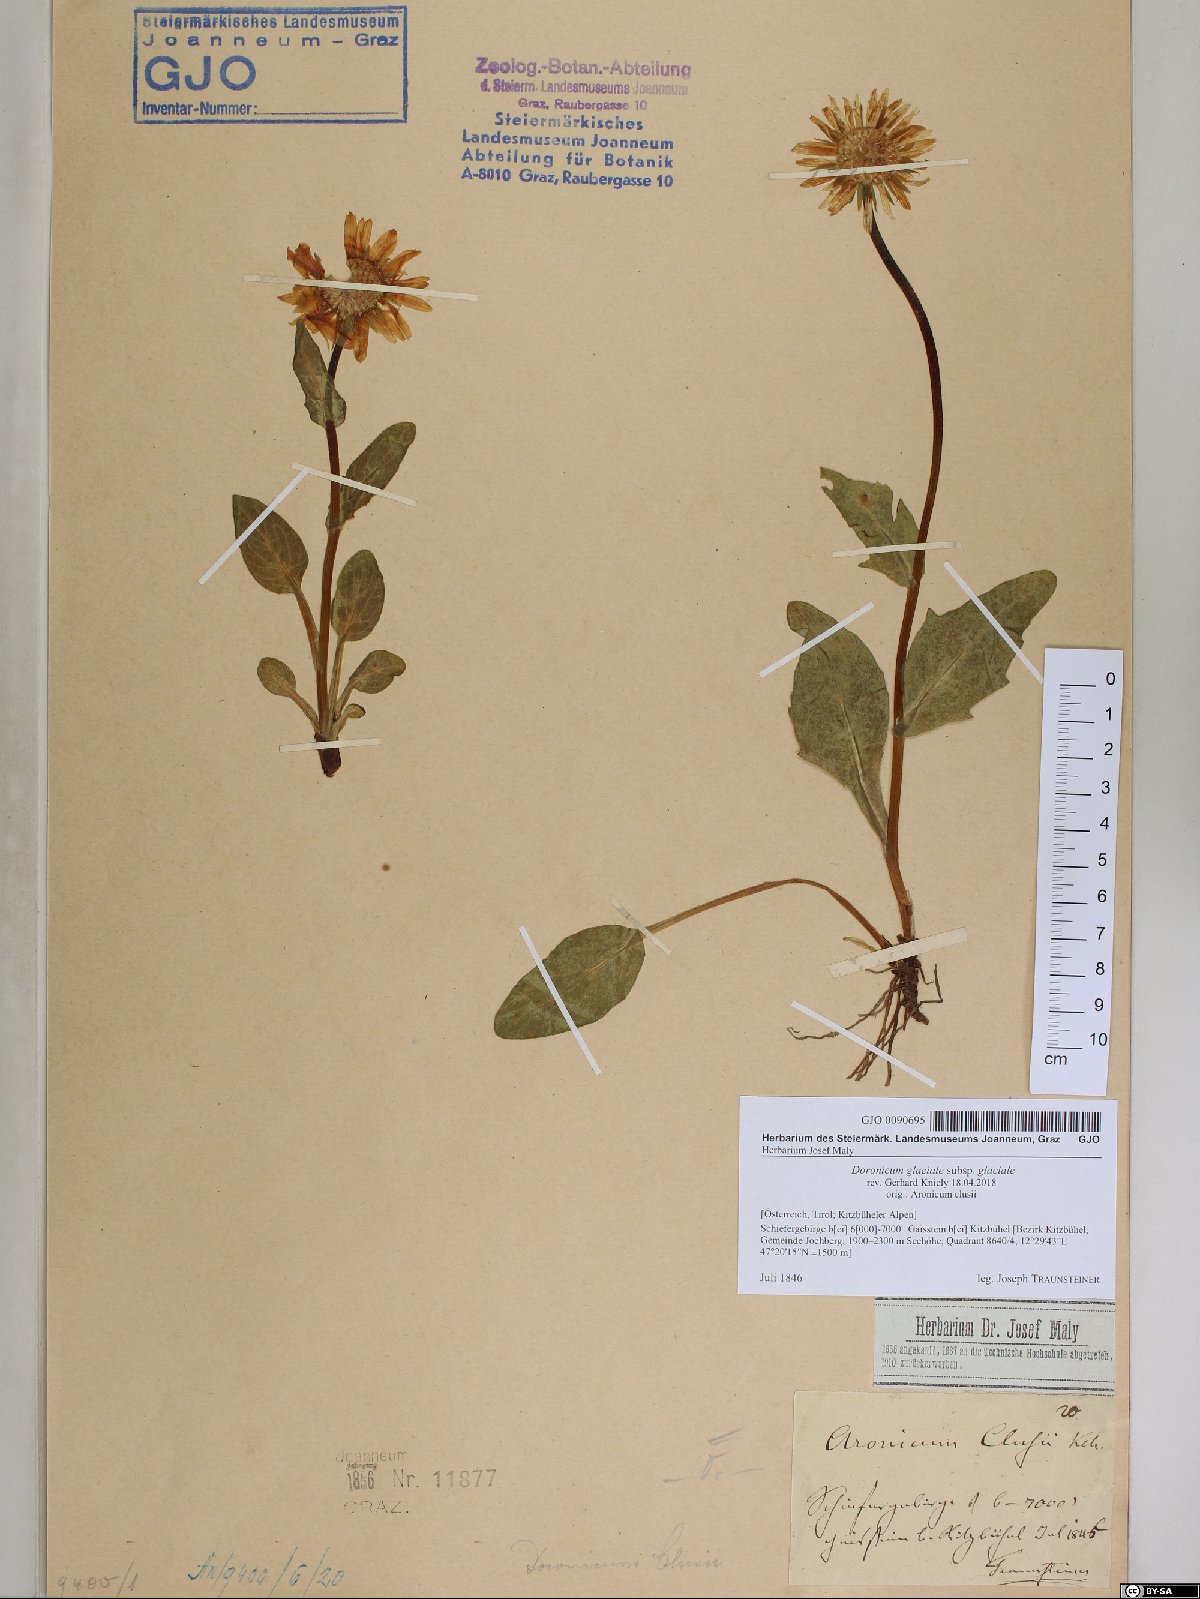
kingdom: Plantae
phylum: Tracheophyta
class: Magnoliopsida
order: Asterales
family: Asteraceae
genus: Doronicum
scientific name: Doronicum glaciale
